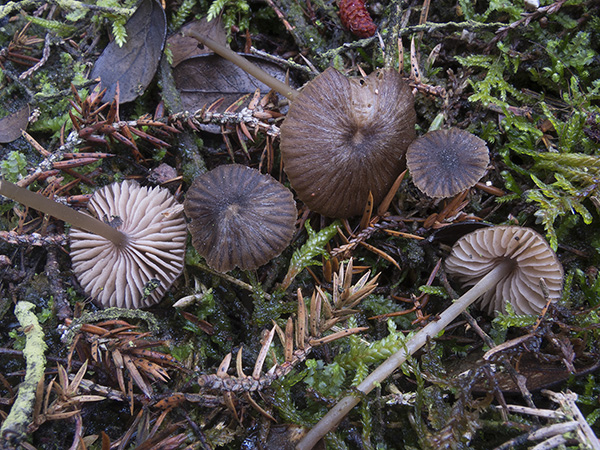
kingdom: Fungi
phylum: Basidiomycota
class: Agaricomycetes
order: Agaricales
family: Entolomataceae
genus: Entoloma
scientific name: Entoloma insolitum
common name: gennemstribet rødblad
